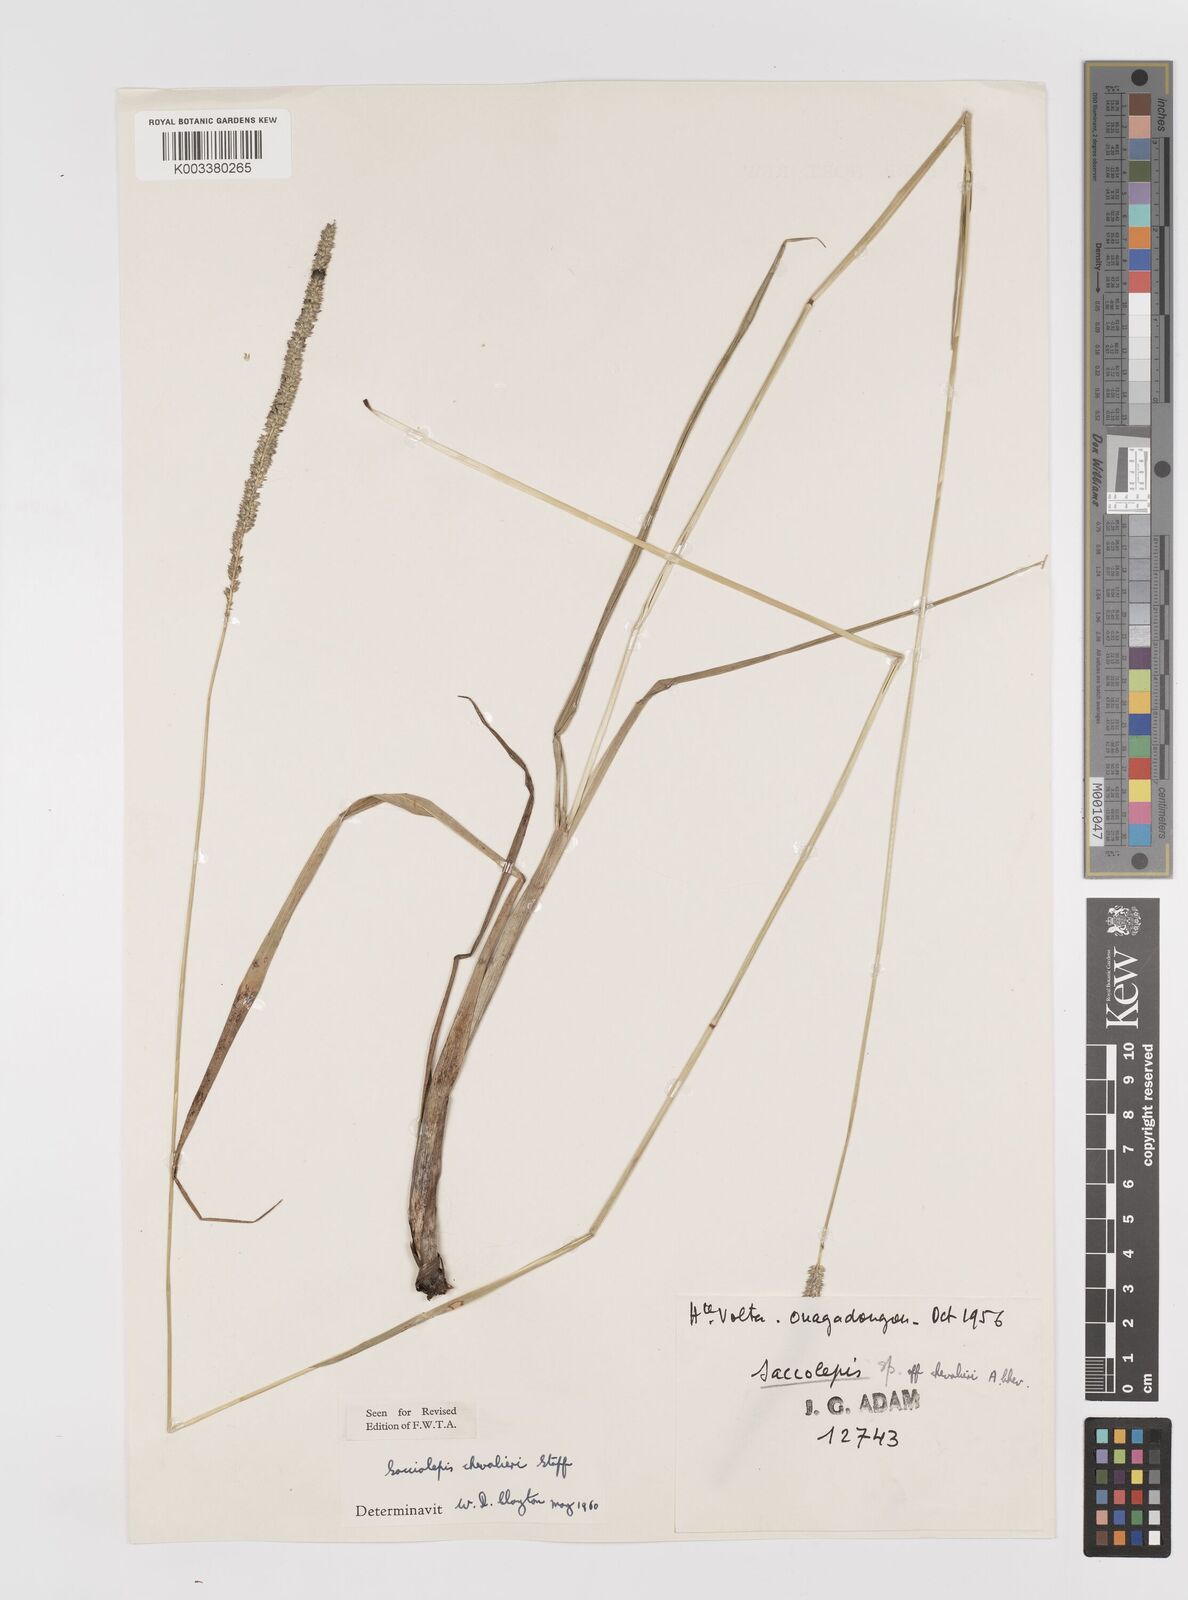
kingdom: Plantae
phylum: Tracheophyta
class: Liliopsida
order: Poales
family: Poaceae
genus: Sacciolepis
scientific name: Sacciolepis typhura
